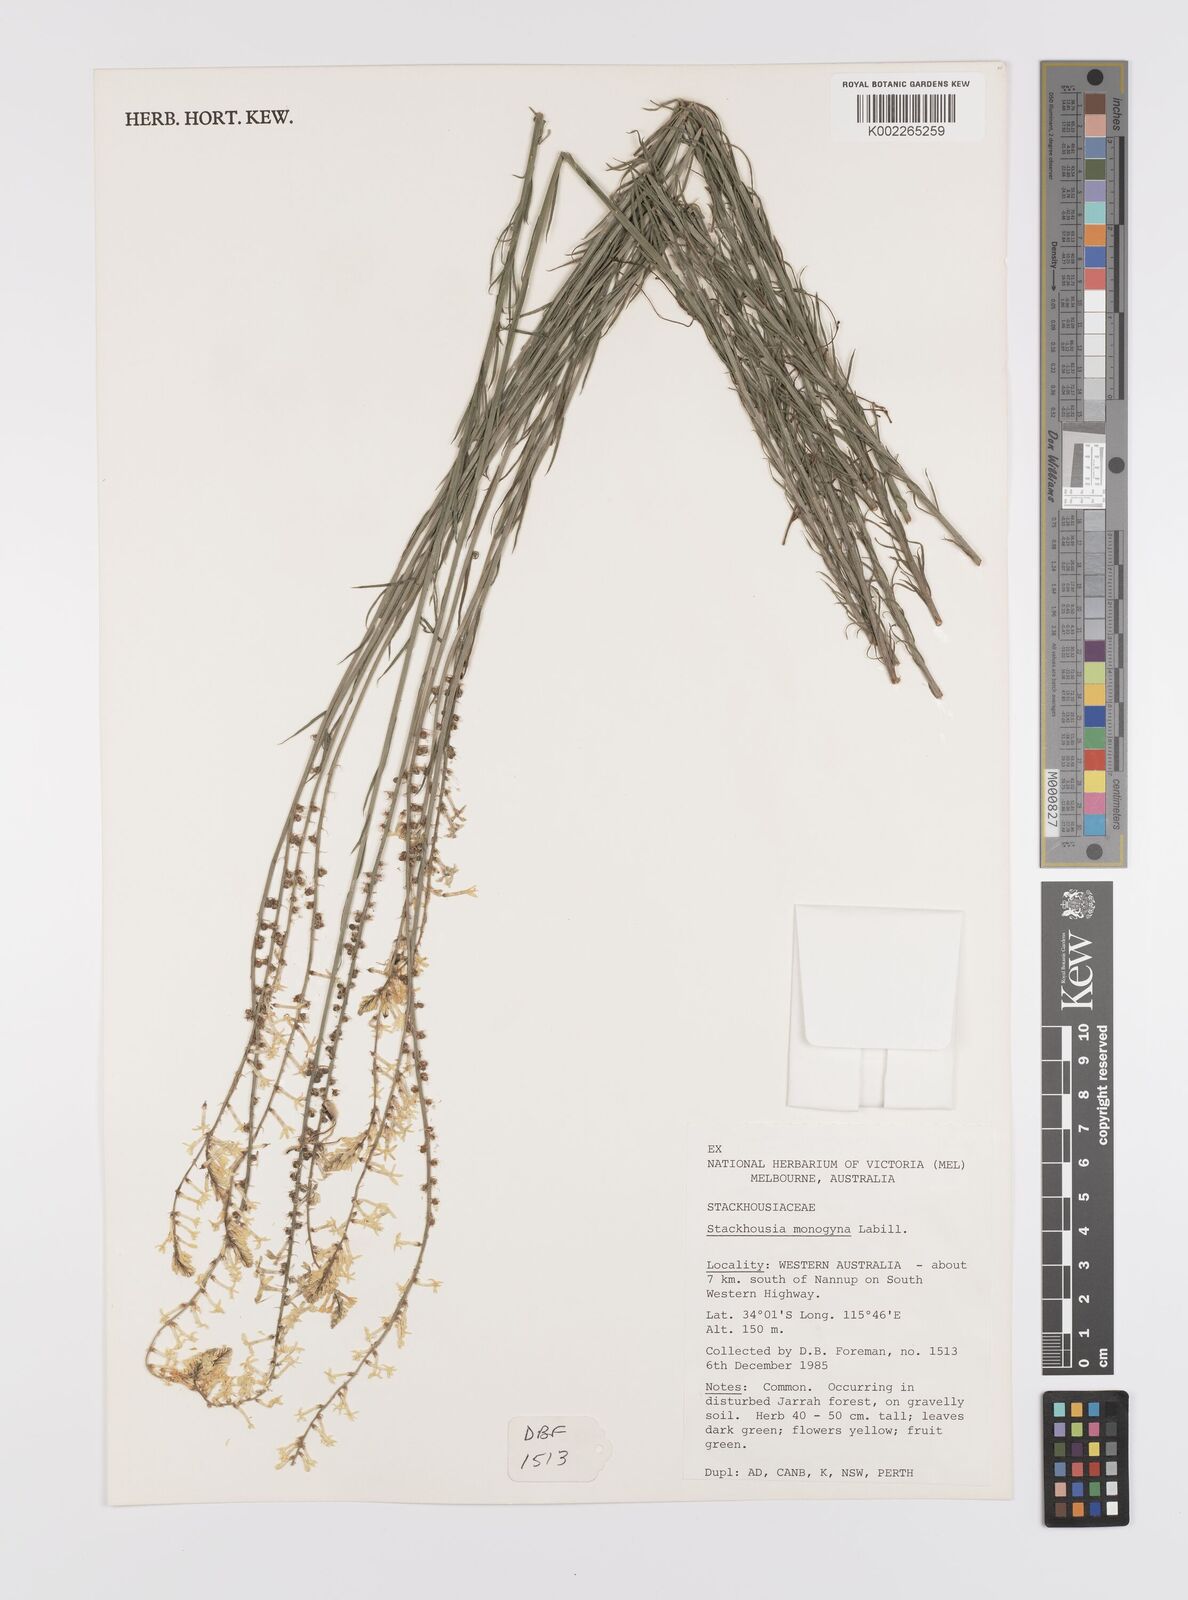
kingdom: Plantae
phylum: Tracheophyta
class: Magnoliopsida
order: Celastrales
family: Celastraceae
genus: Stackhousia
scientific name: Stackhousia monogyna
